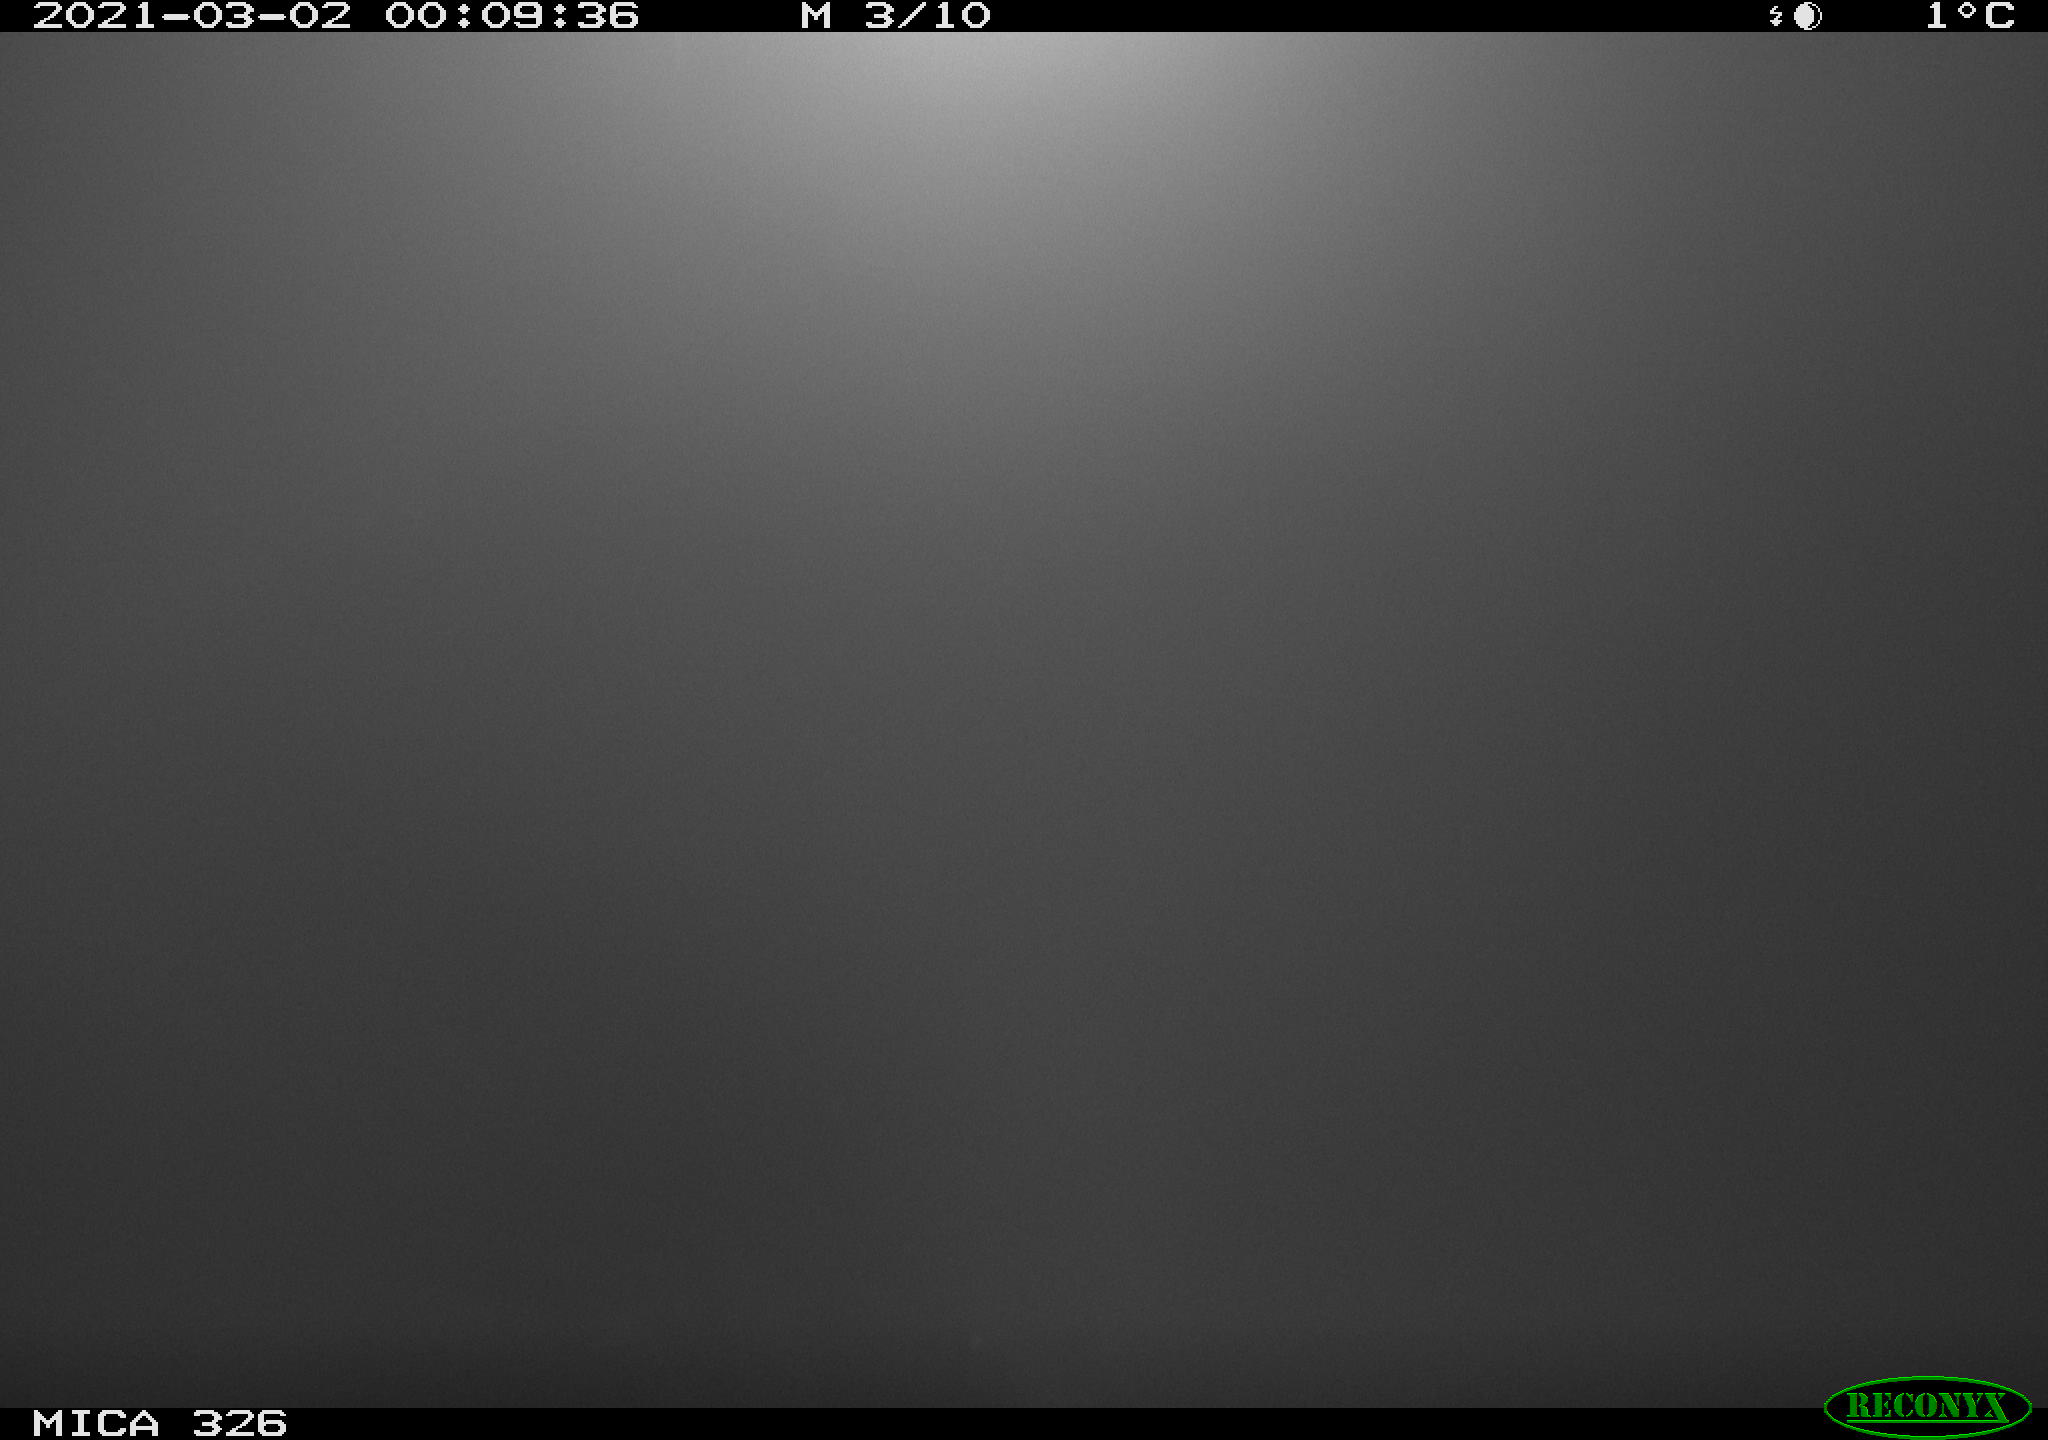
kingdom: Animalia
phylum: Chordata
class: Mammalia
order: Rodentia
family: Cricetidae
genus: Ondatra
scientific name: Ondatra zibethicus
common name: Muskrat
